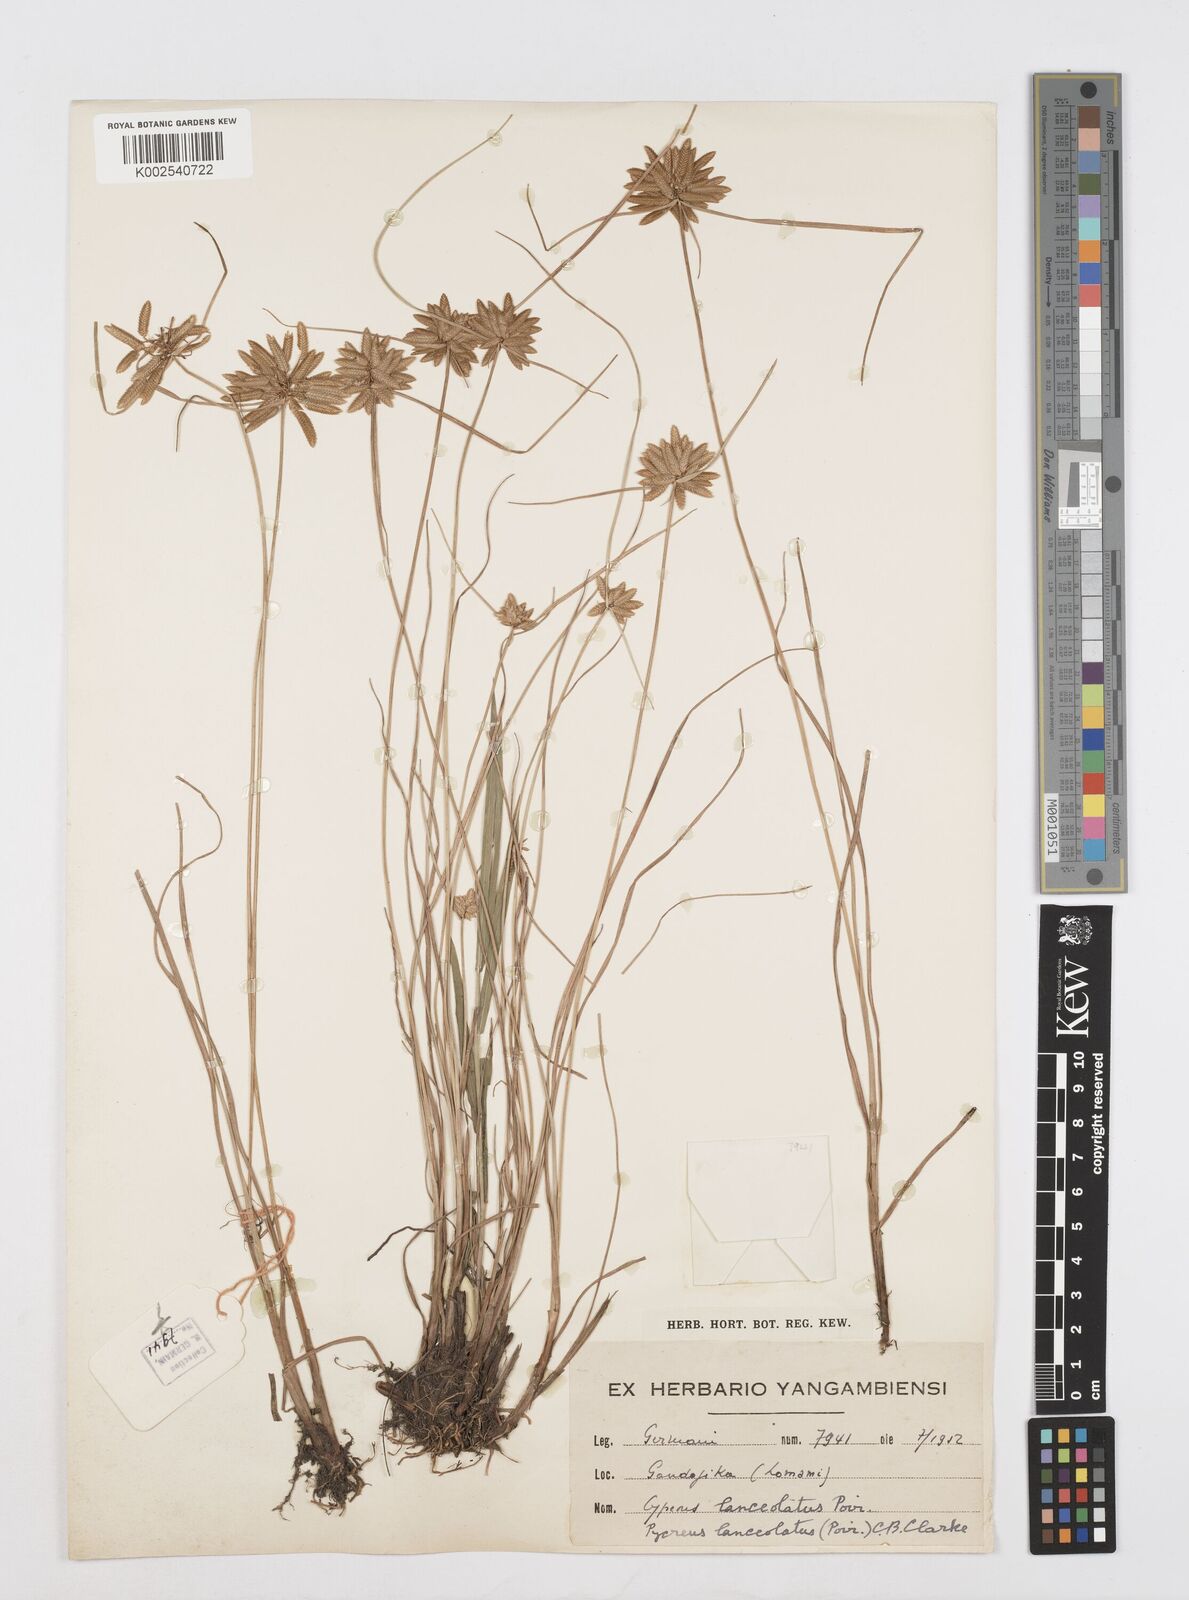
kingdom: Plantae
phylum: Tracheophyta
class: Liliopsida
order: Poales
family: Cyperaceae
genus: Cyperus
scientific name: Cyperus
